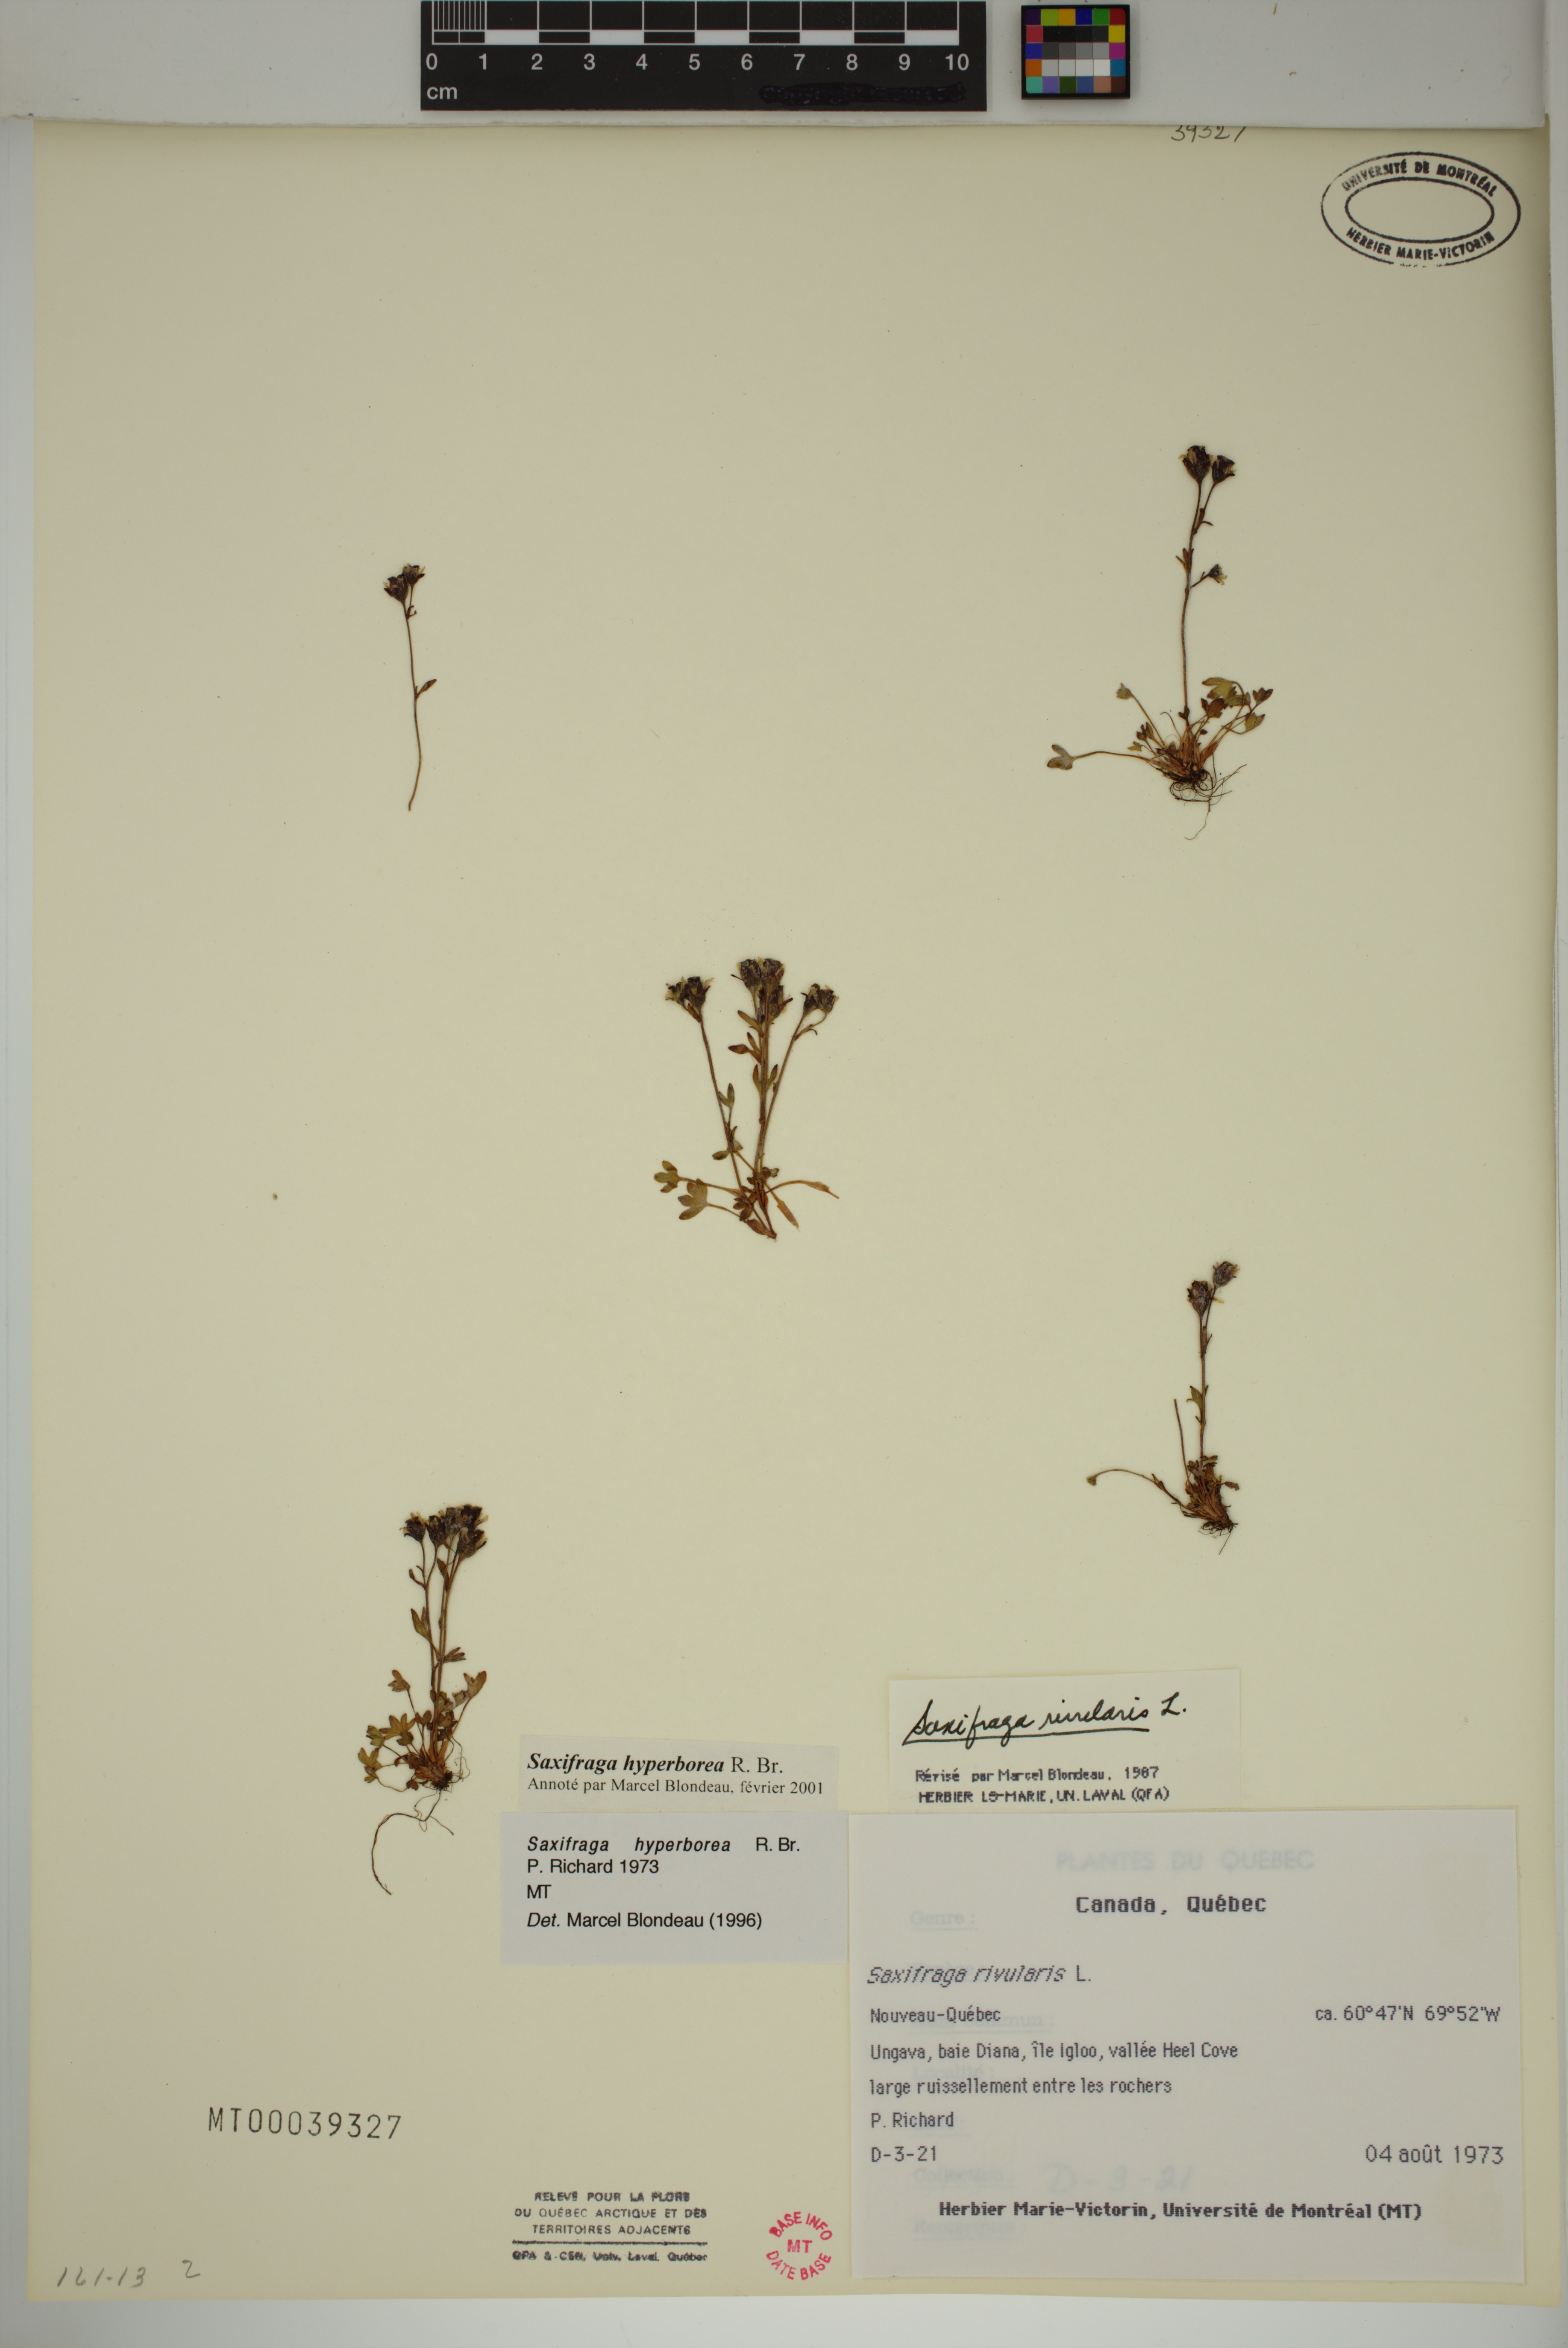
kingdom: Plantae
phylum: Tracheophyta
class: Magnoliopsida
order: Saxifragales
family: Saxifragaceae
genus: Saxifraga
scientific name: Saxifraga hyperborea
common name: Arctic saxifrage
